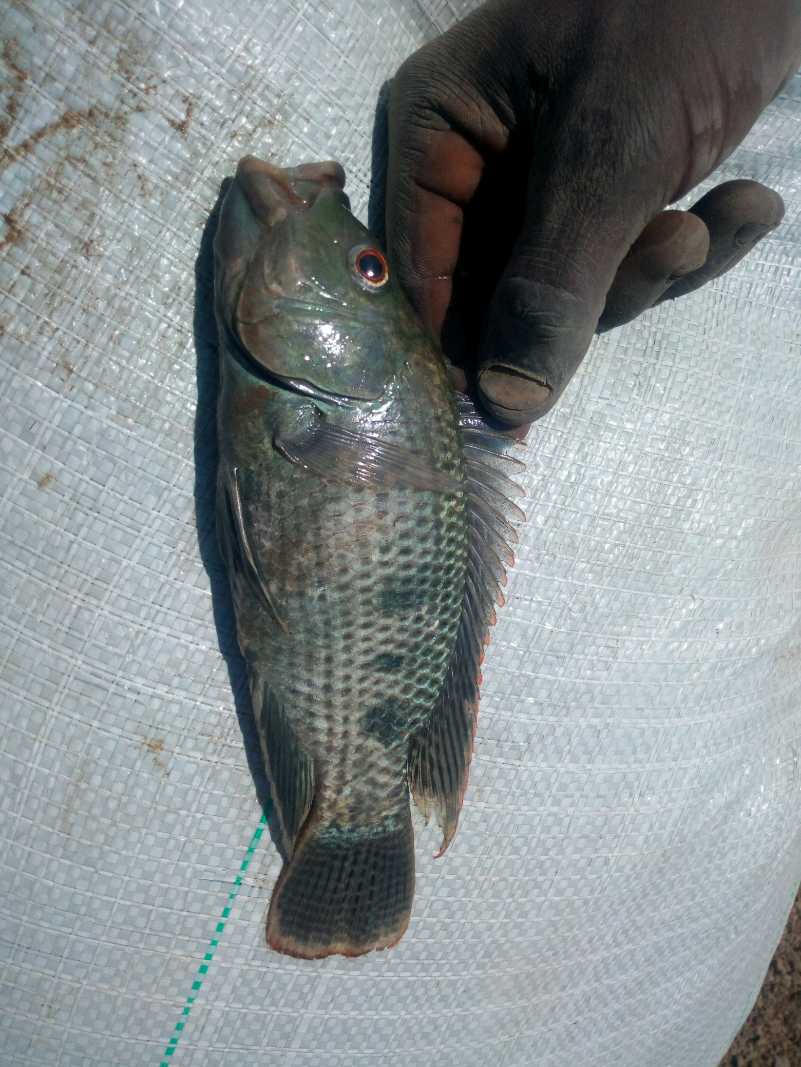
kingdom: Animalia
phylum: Chordata
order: Perciformes
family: Cichlidae
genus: Oreochromis
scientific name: Oreochromis urolepis
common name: Wami tilapia
